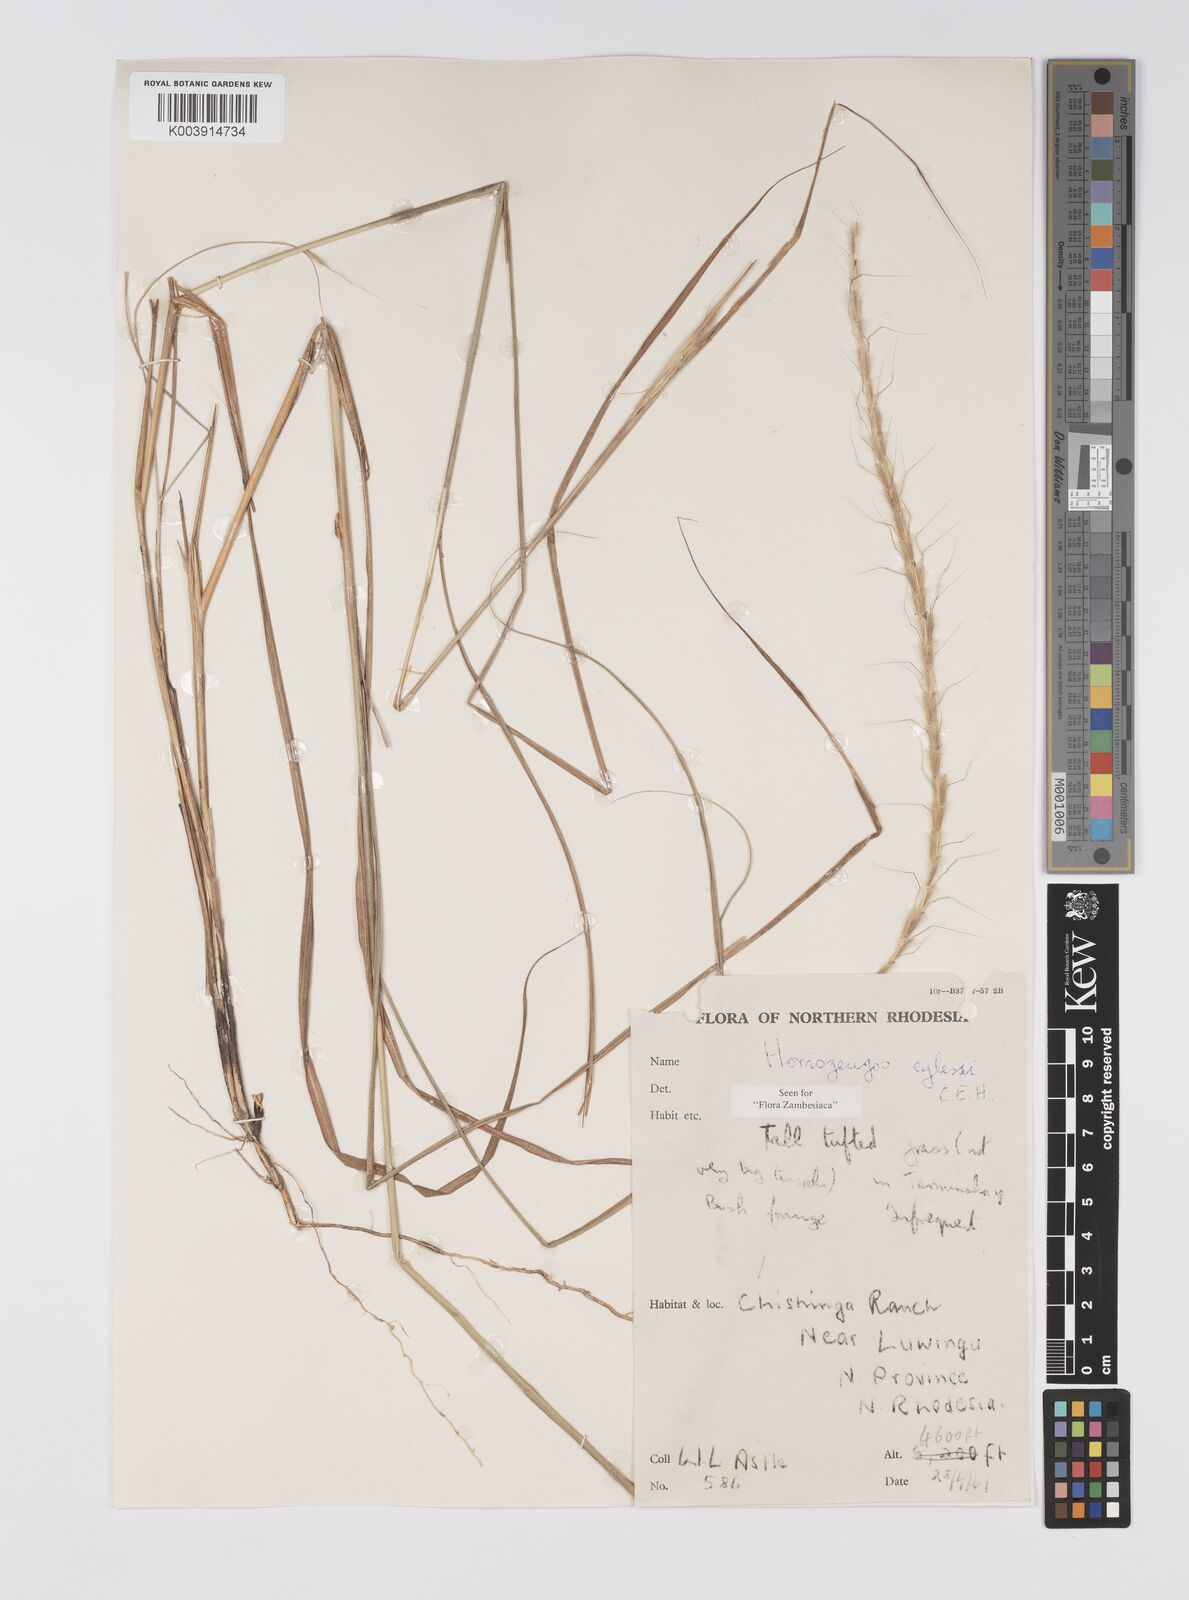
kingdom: Plantae
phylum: Tracheophyta
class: Liliopsida
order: Poales
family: Poaceae
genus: Homozeugos
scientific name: Homozeugos eylesii
